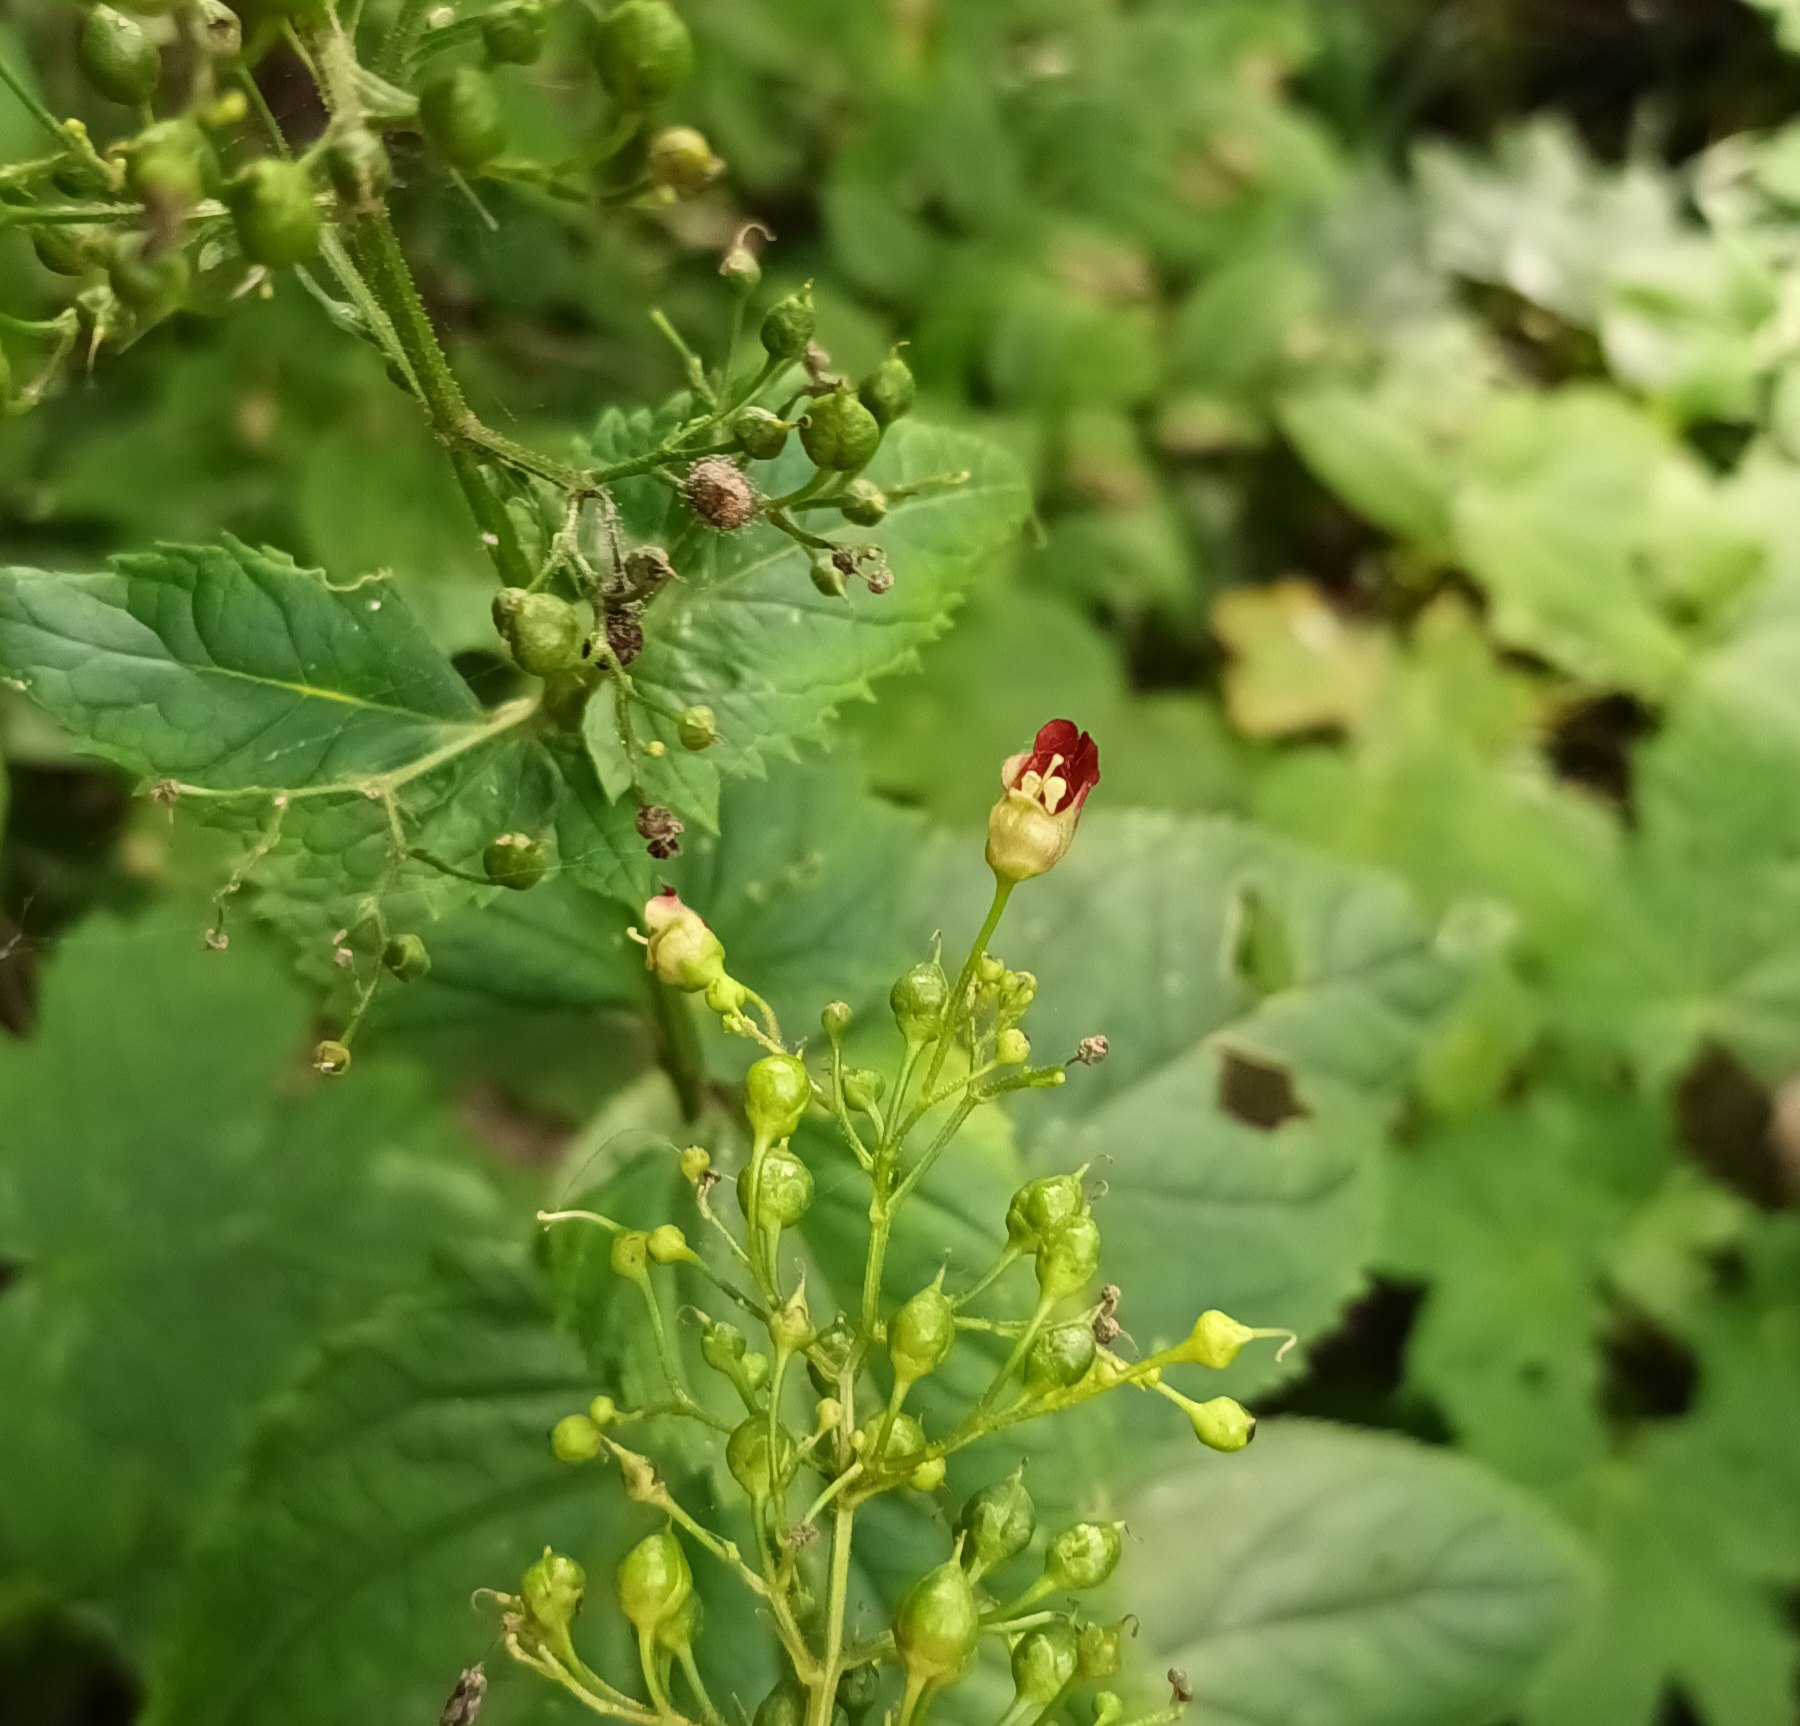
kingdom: Plantae
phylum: Tracheophyta
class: Magnoliopsida
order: Lamiales
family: Scrophulariaceae
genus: Scrophularia
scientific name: Scrophularia nodosa
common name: Knoldet brunrod
